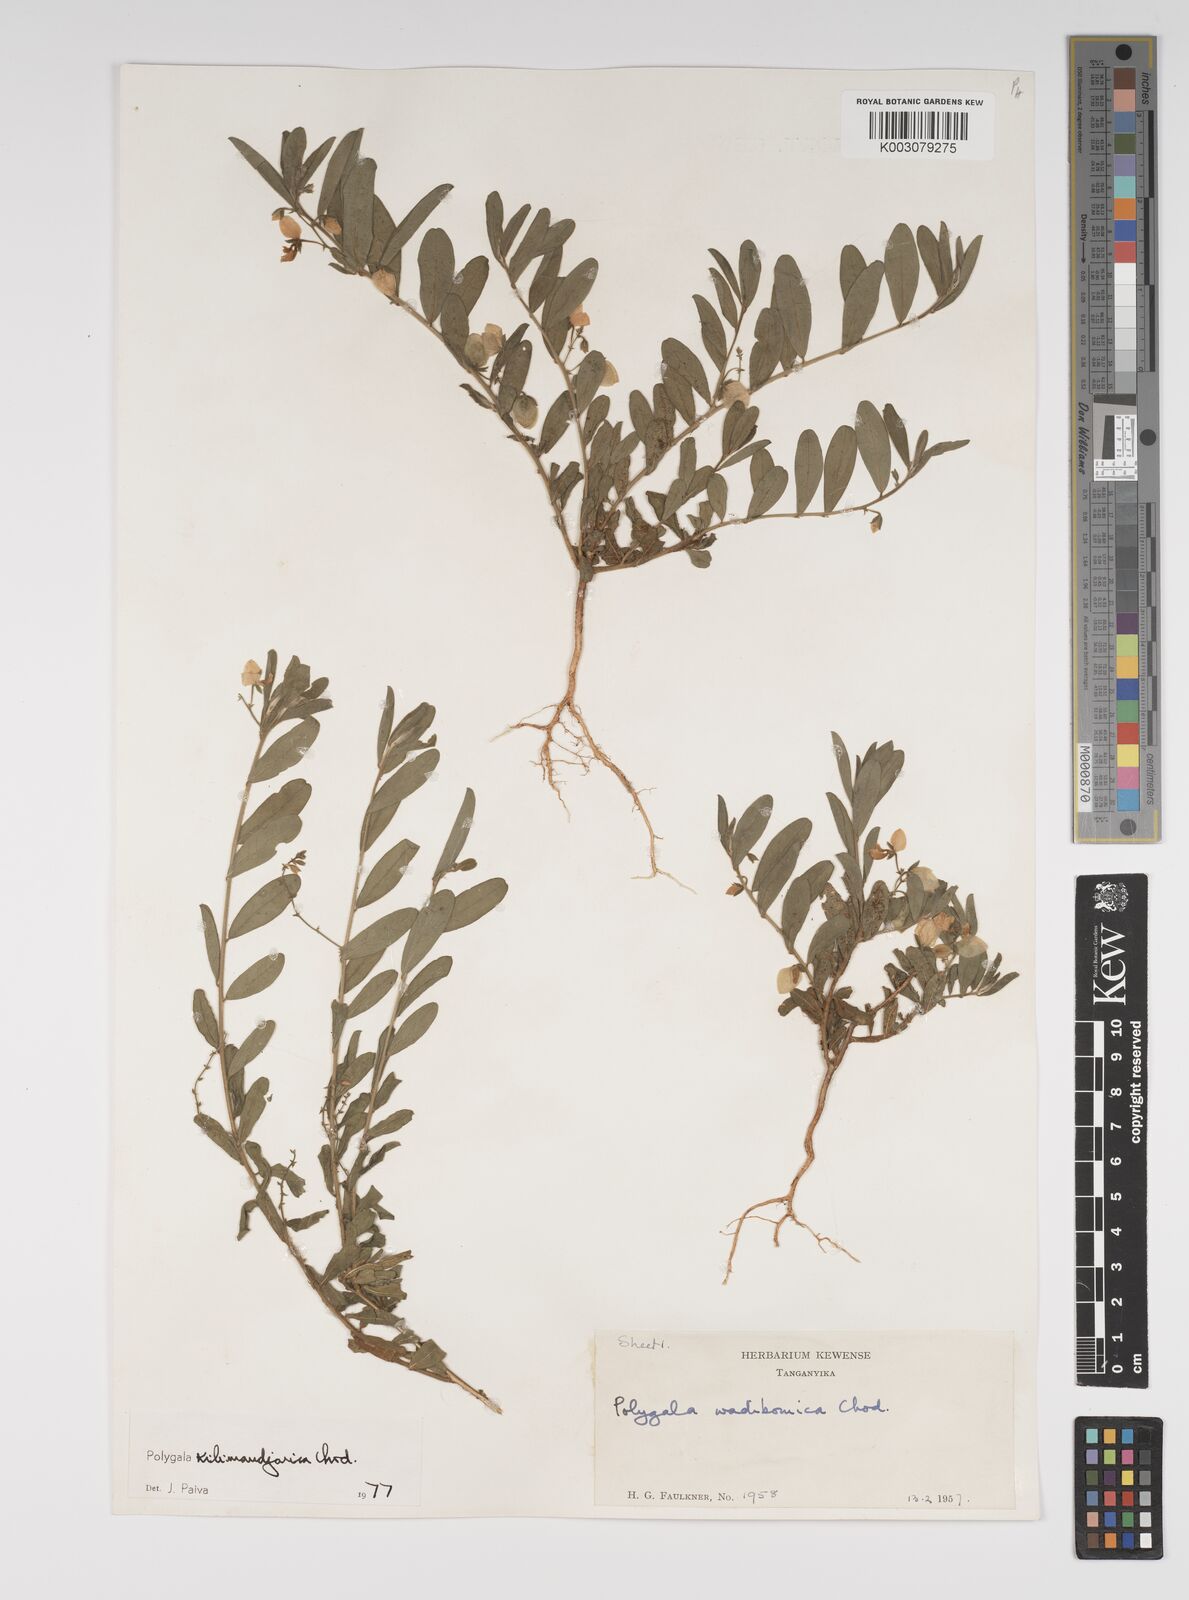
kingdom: Plantae
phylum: Tracheophyta
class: Magnoliopsida
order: Fabales
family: Polygalaceae
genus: Polygala
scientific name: Polygala kilimandjarica
